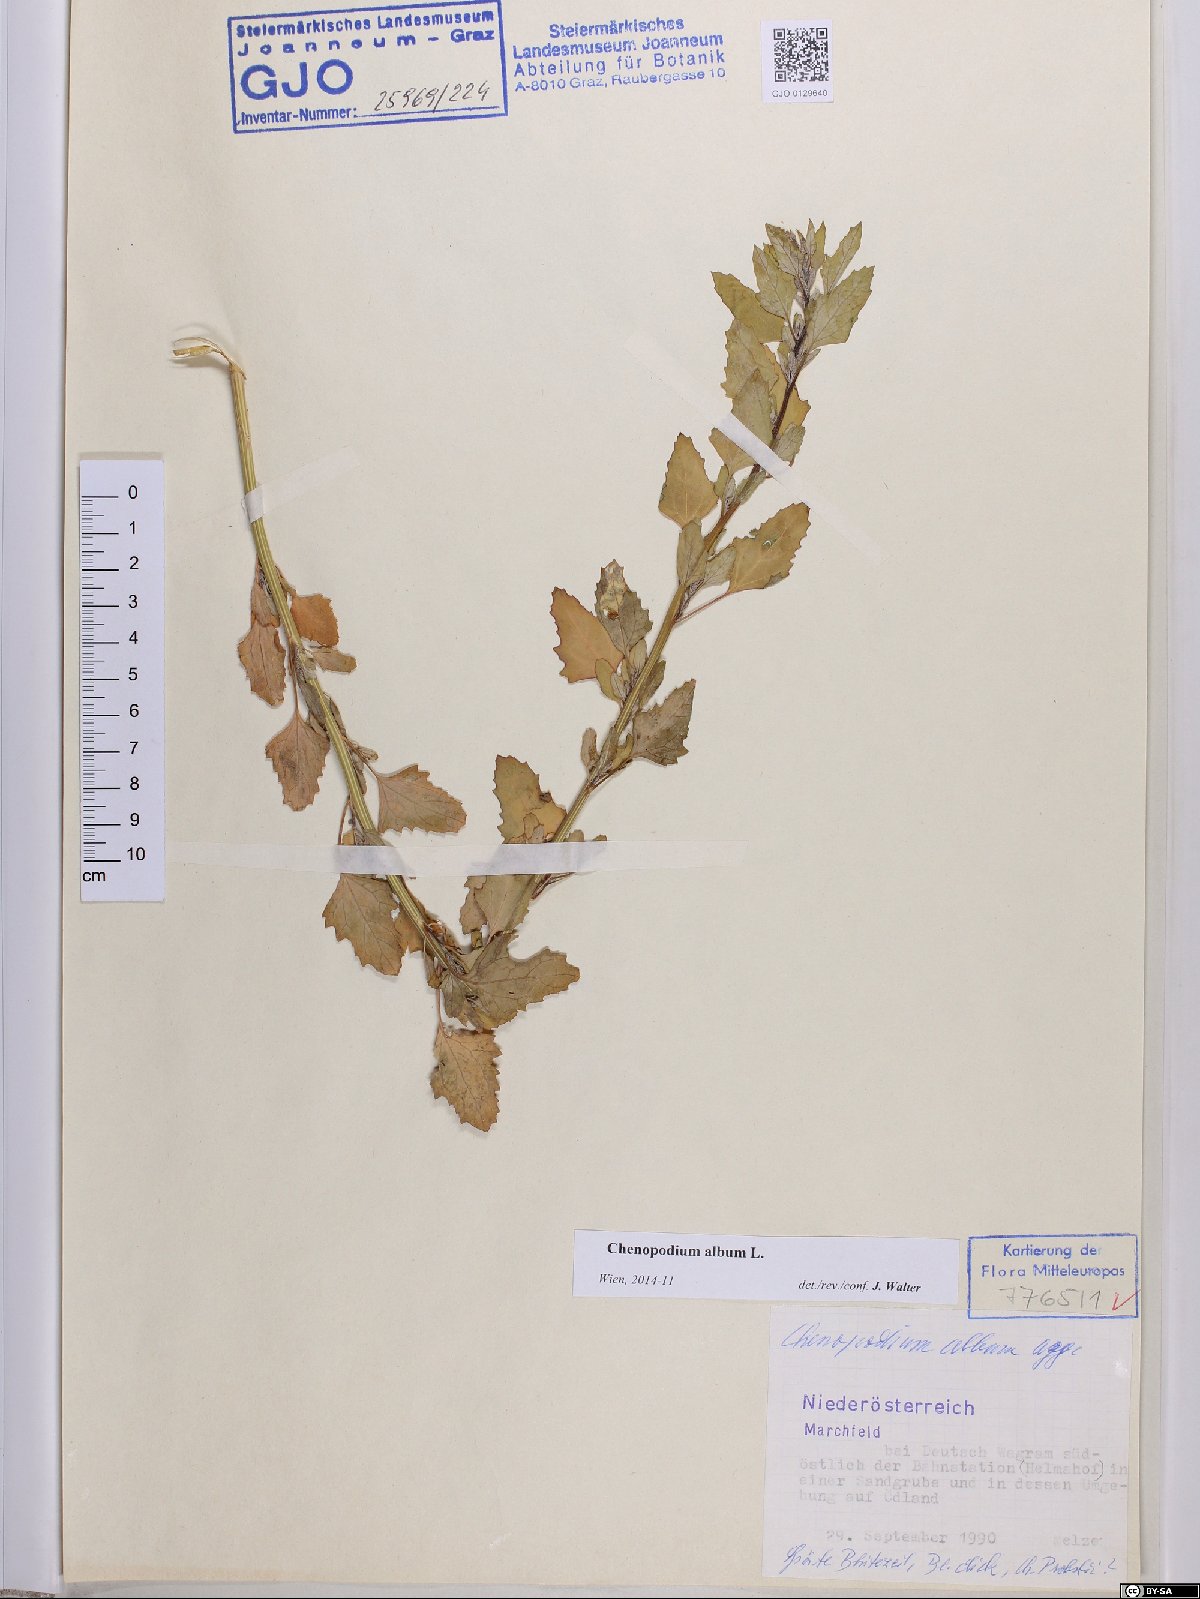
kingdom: Plantae
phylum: Tracheophyta
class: Magnoliopsida
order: Caryophyllales
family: Amaranthaceae
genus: Chenopodium
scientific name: Chenopodium album
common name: Fat-hen
